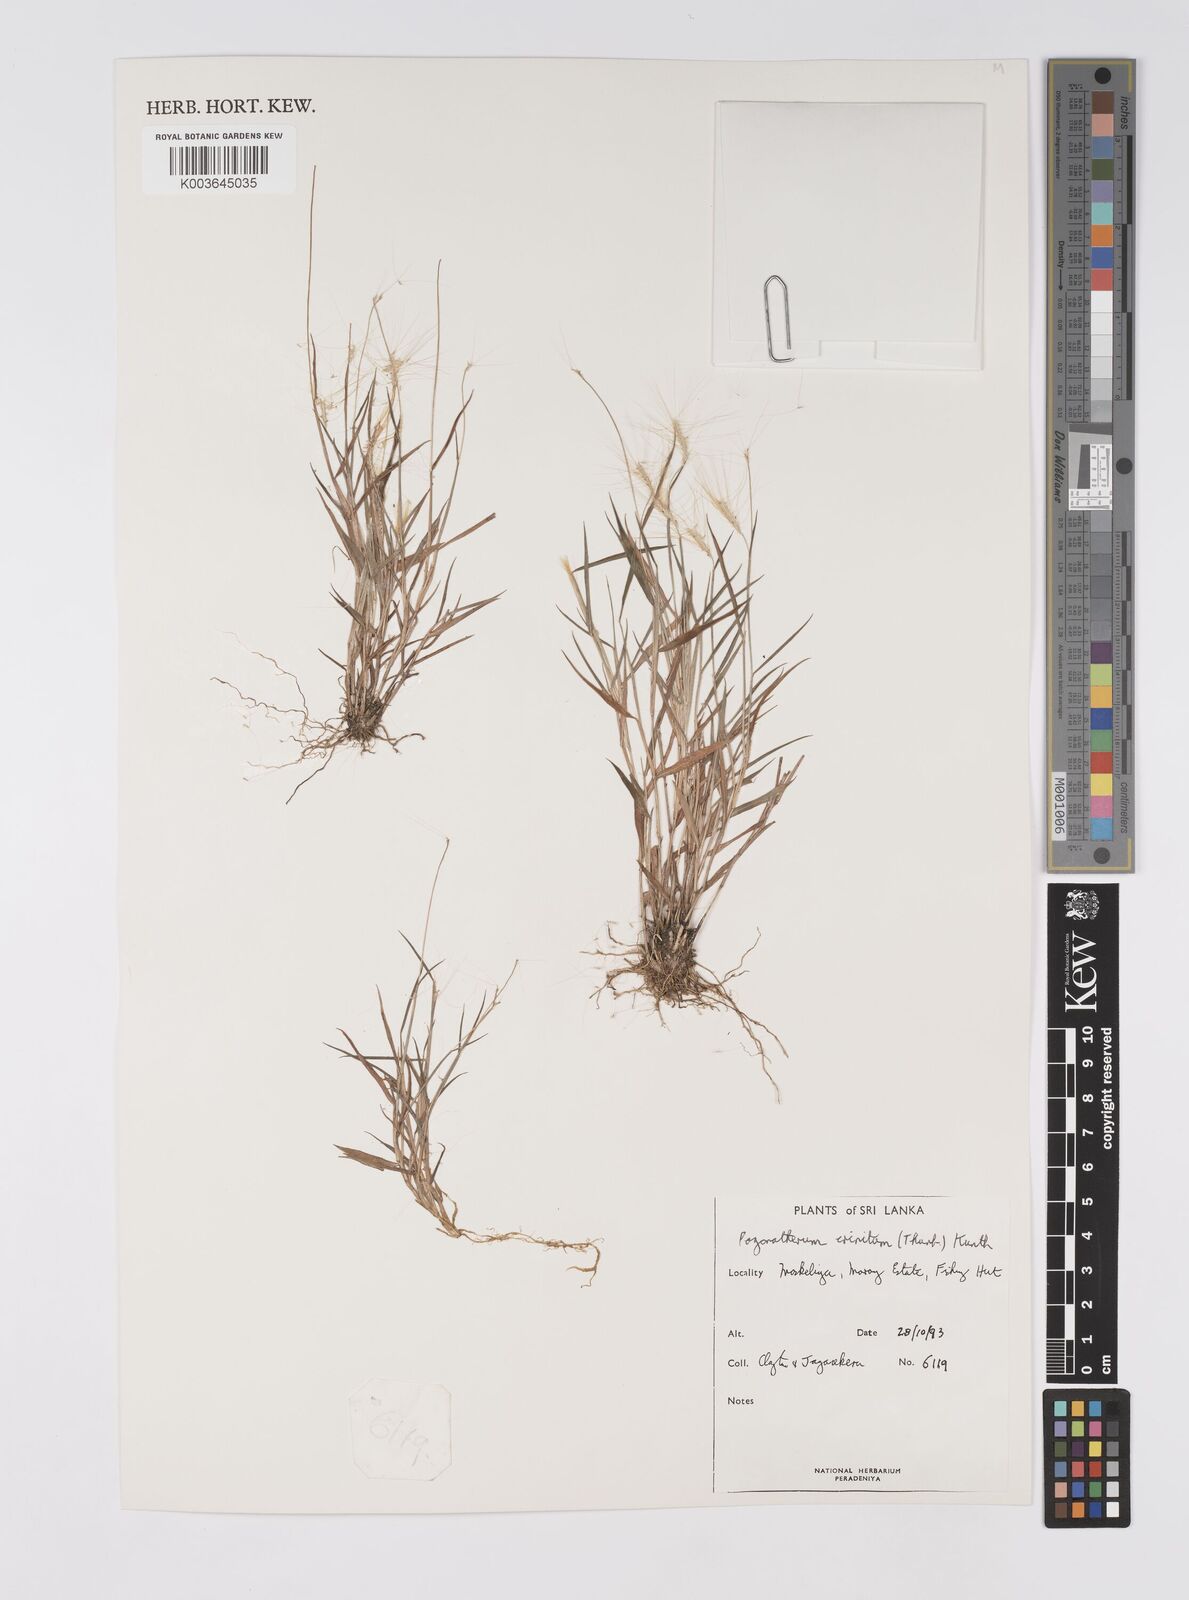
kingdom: Plantae
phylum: Tracheophyta
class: Liliopsida
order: Poales
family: Poaceae
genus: Pogonatherum
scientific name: Pogonatherum crinitum
